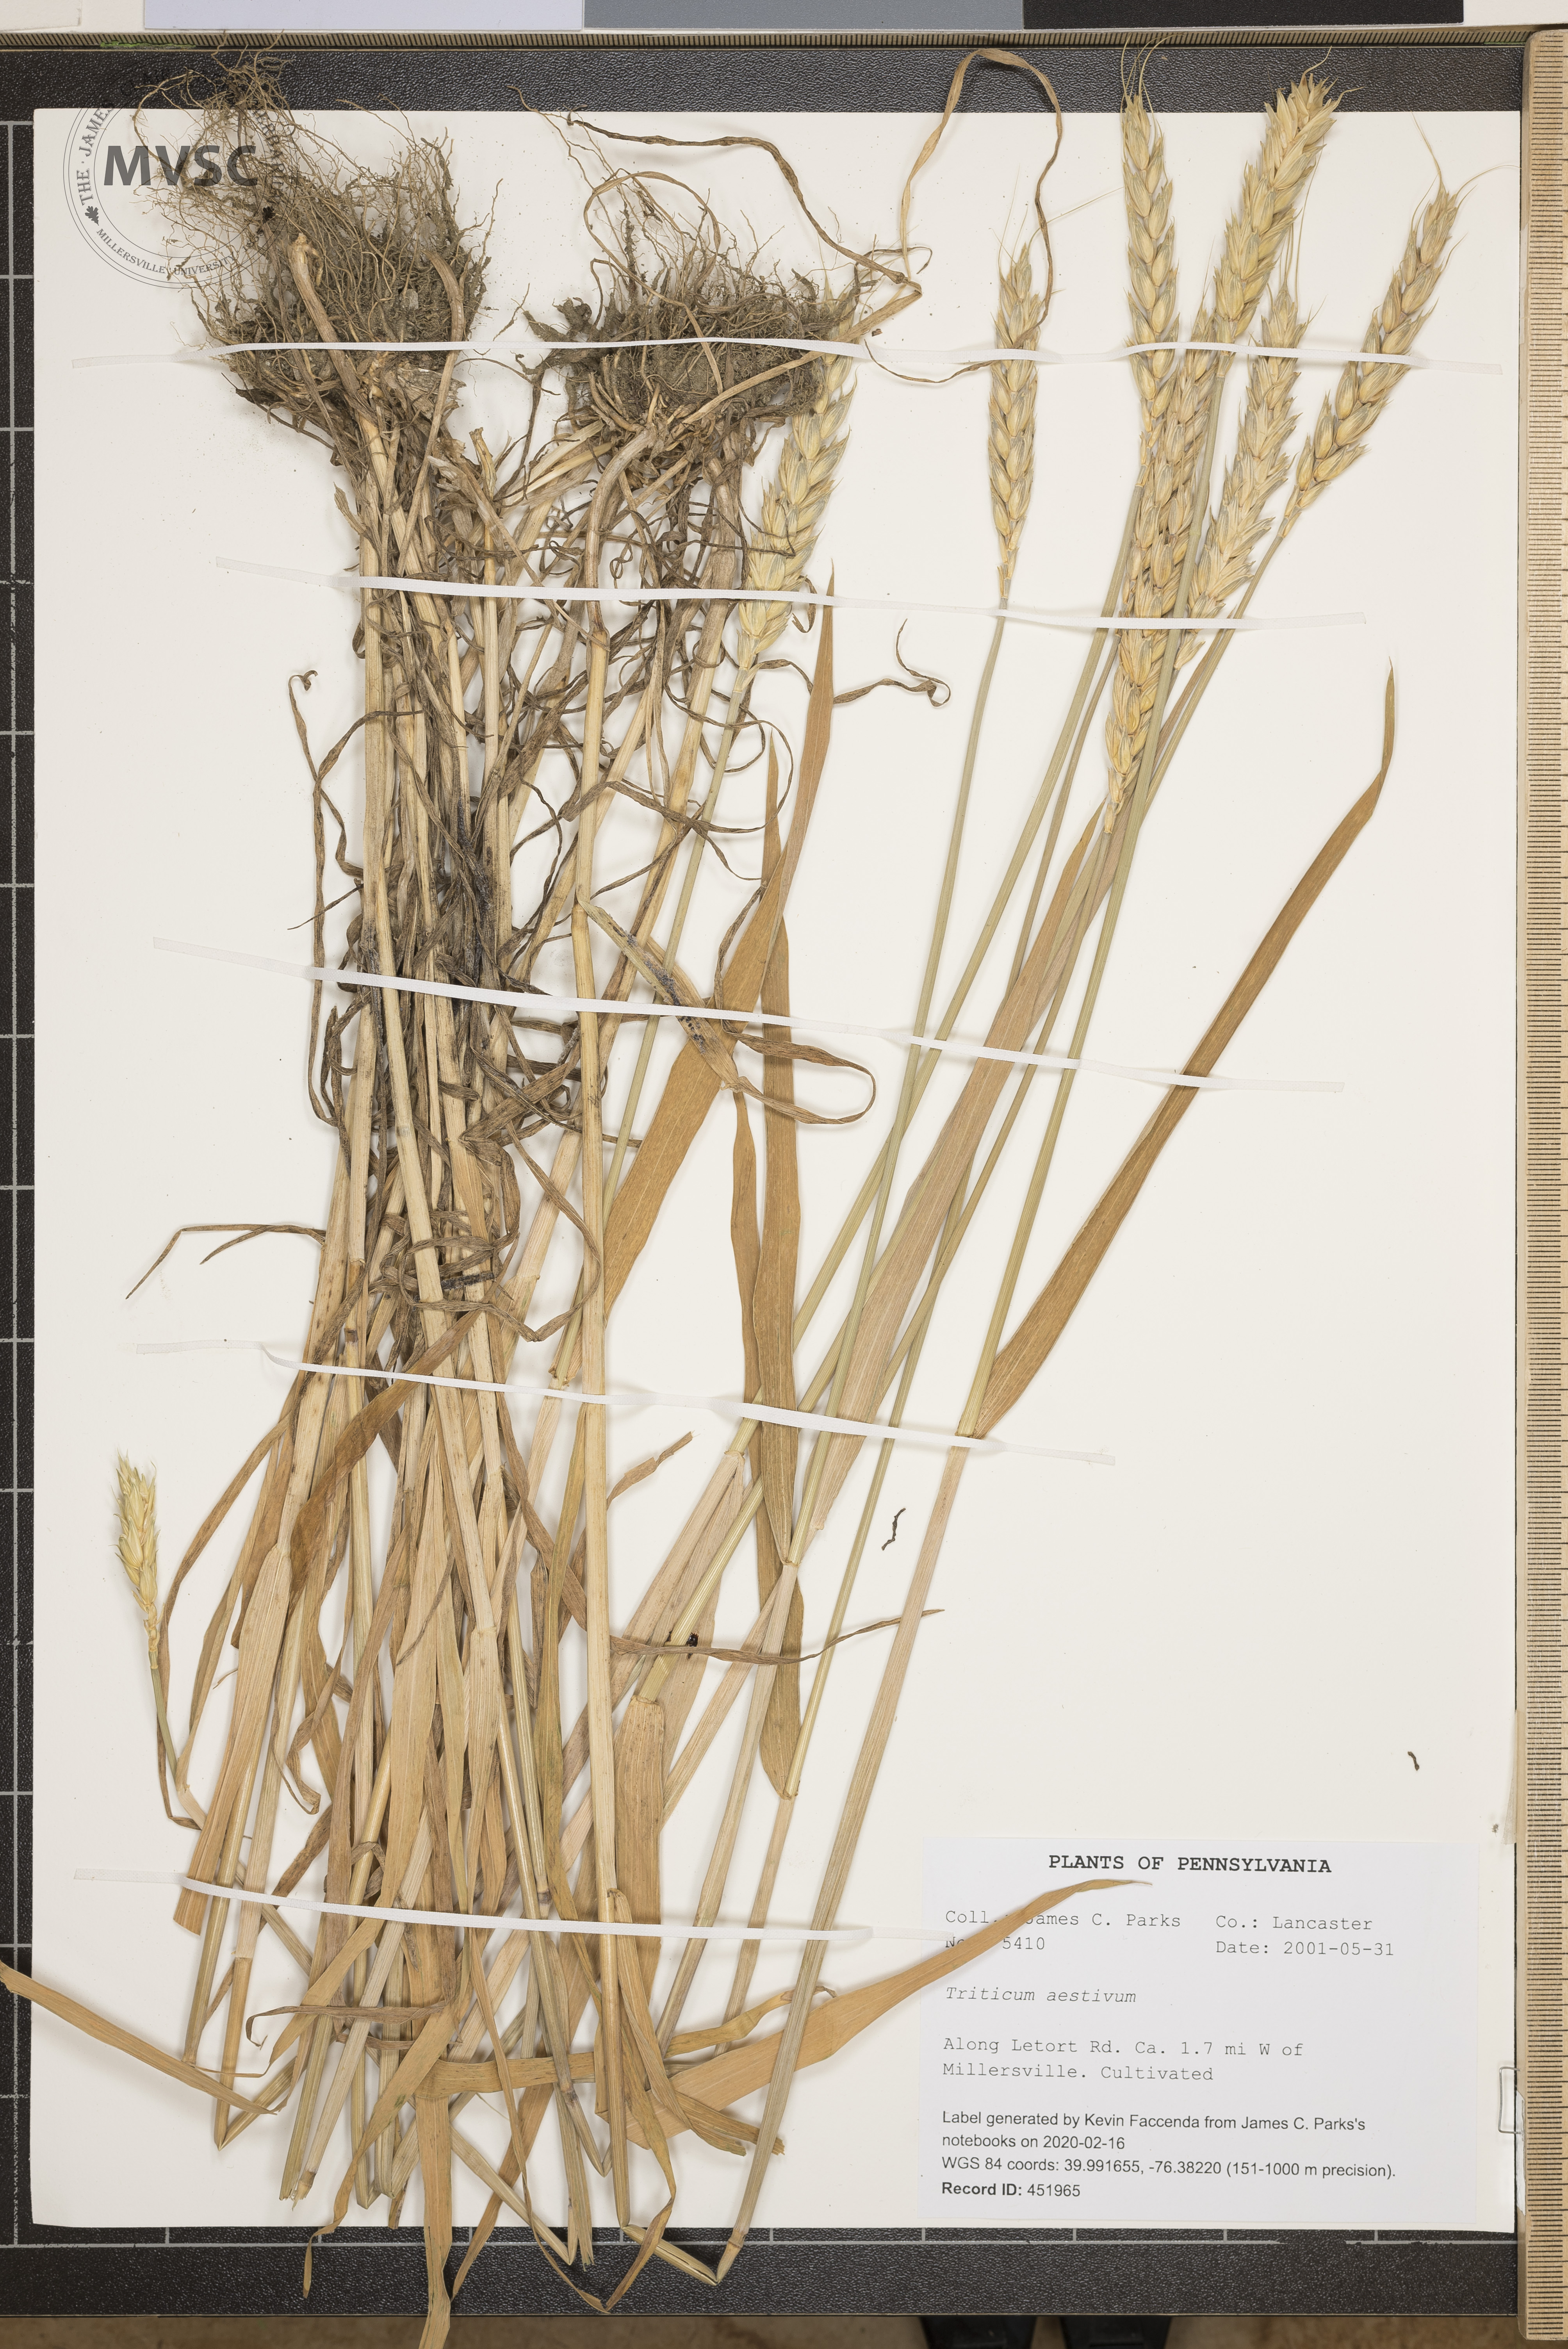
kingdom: Plantae
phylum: Tracheophyta
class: Liliopsida
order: Poales
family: Poaceae
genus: Triticum
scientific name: Triticum aestivum
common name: Common wheat
